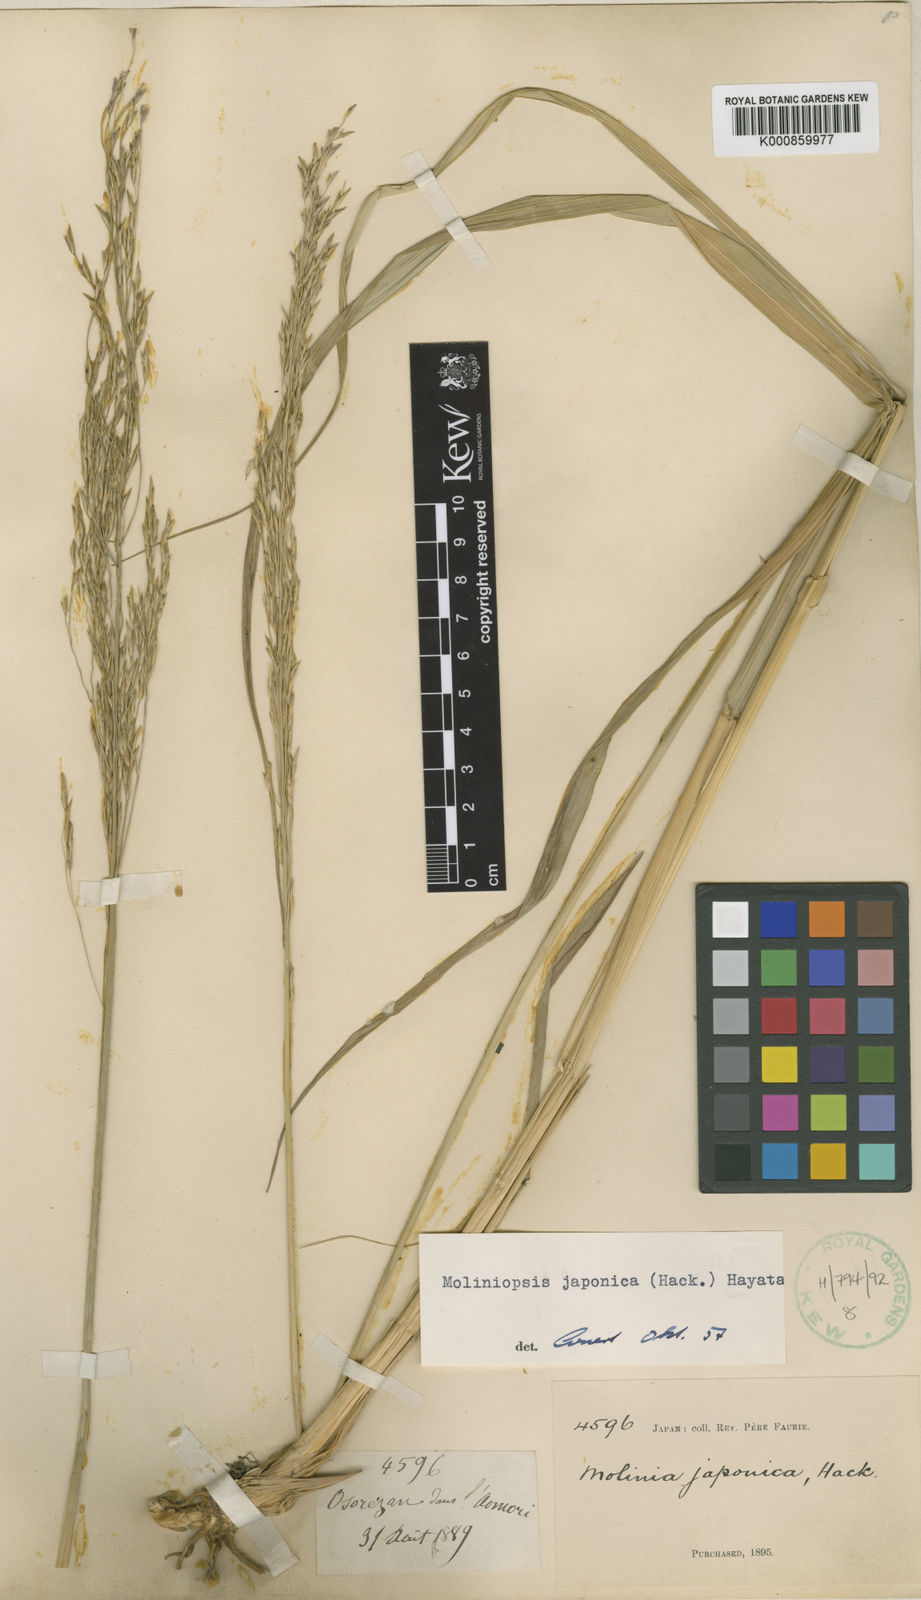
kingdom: Plantae
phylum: Tracheophyta
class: Liliopsida
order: Poales
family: Poaceae
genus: Moliniopsis
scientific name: Moliniopsis japonica
